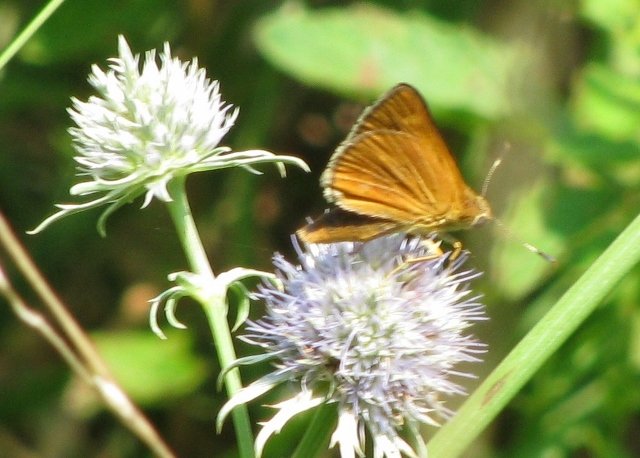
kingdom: Animalia
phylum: Arthropoda
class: Insecta
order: Lepidoptera
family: Hesperiidae
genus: Problema
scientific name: Problema byssus
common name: Byssus Skipper
